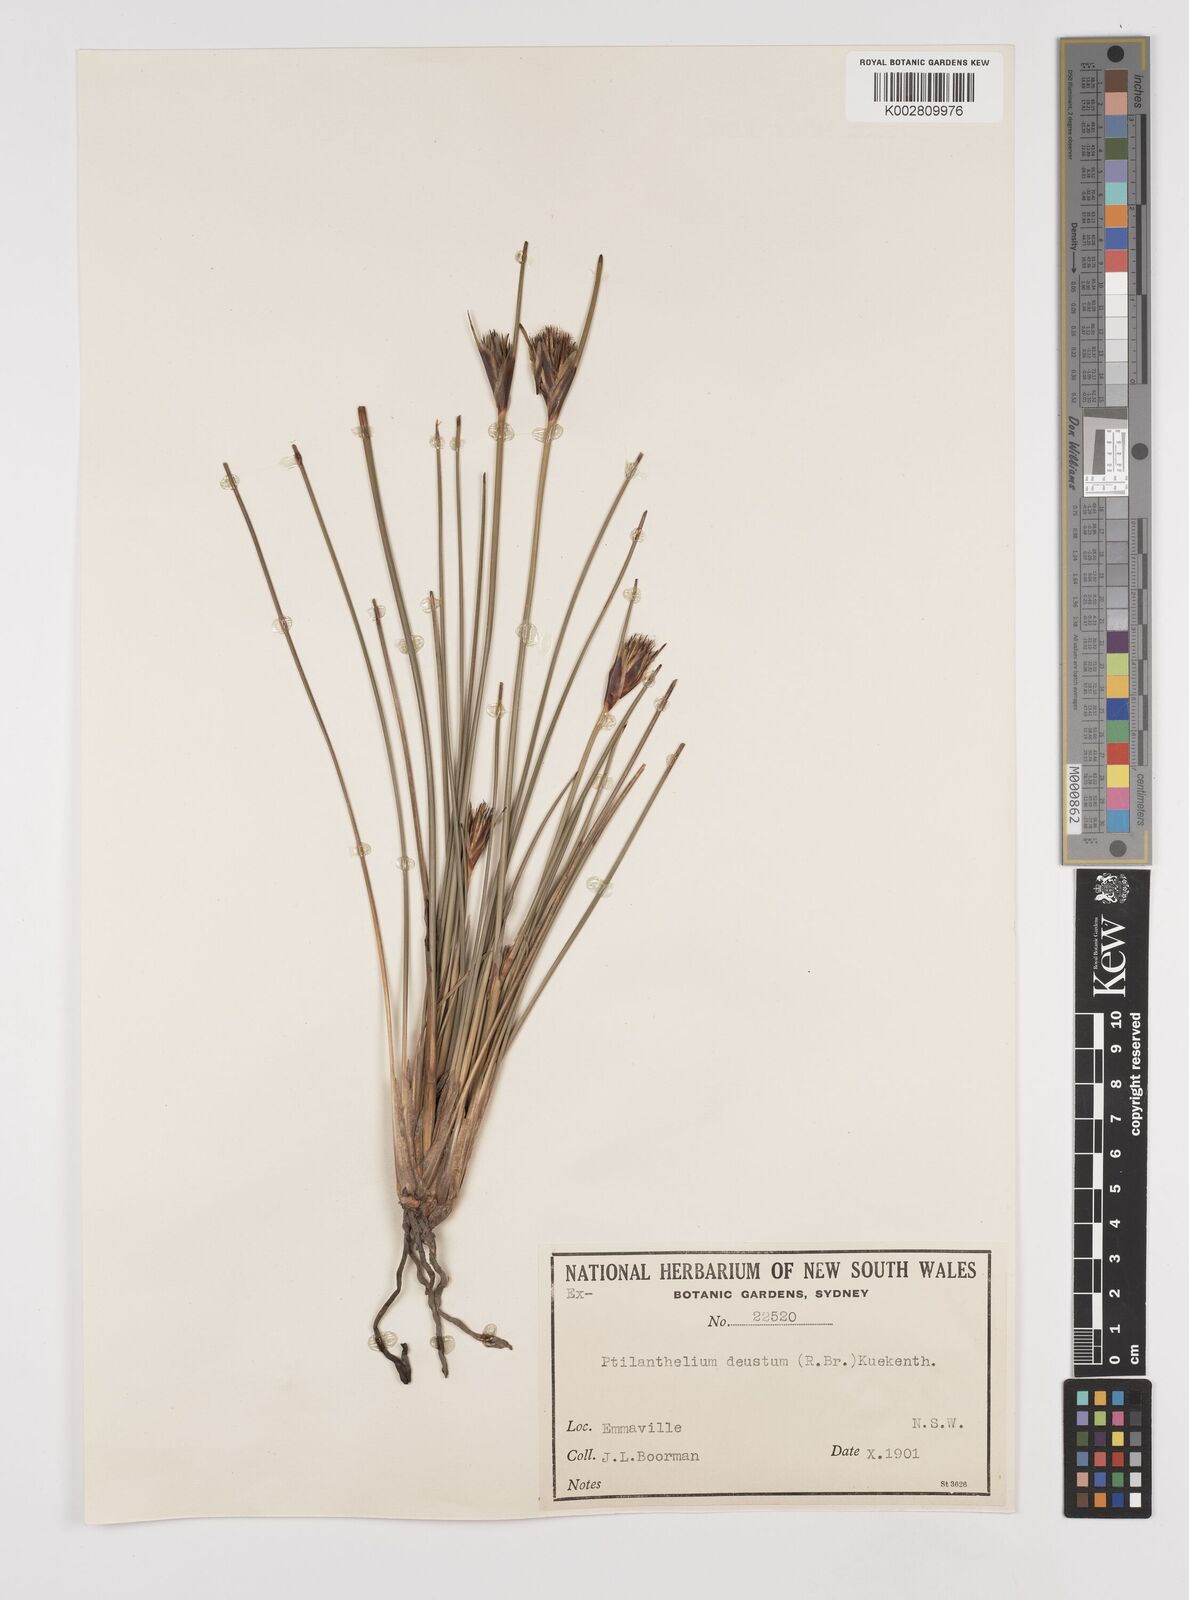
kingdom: Plantae
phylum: Tracheophyta
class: Liliopsida
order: Poales
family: Cyperaceae
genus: Ptilothrix
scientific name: Ptilothrix deusta
